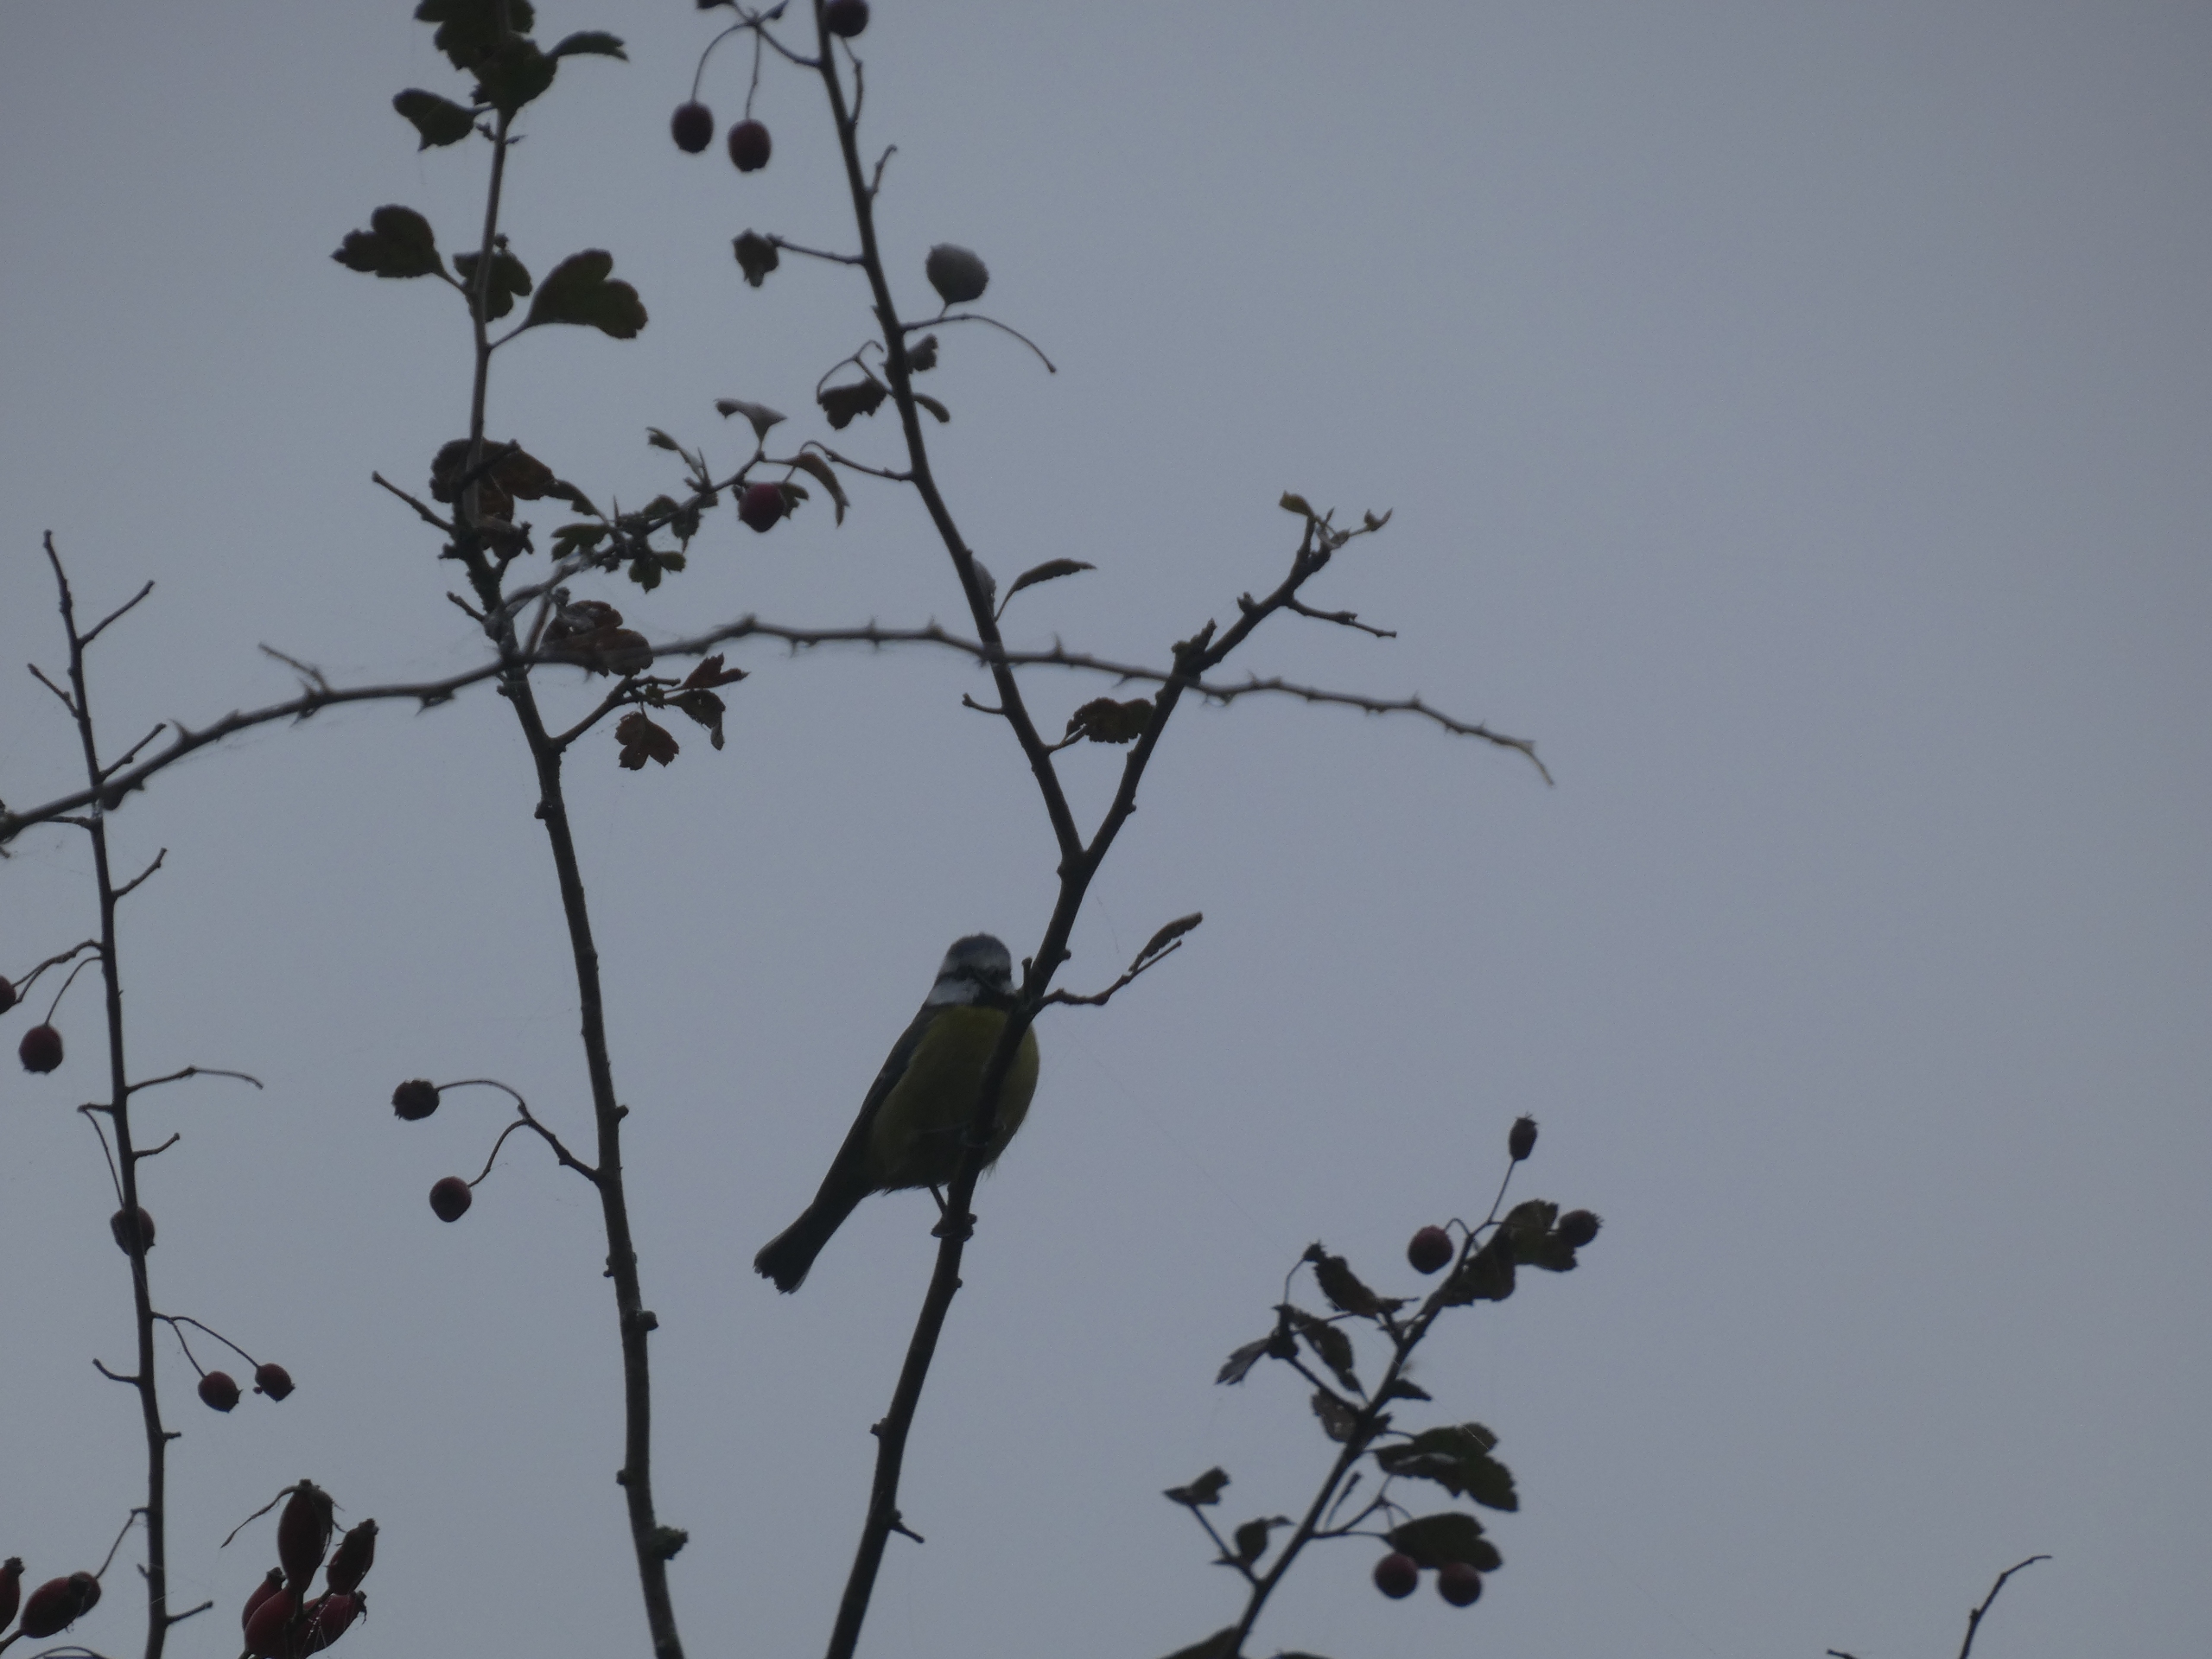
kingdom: Animalia
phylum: Chordata
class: Aves
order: Passeriformes
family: Paridae
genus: Cyanistes
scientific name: Cyanistes caeruleus
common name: Blåmejse
